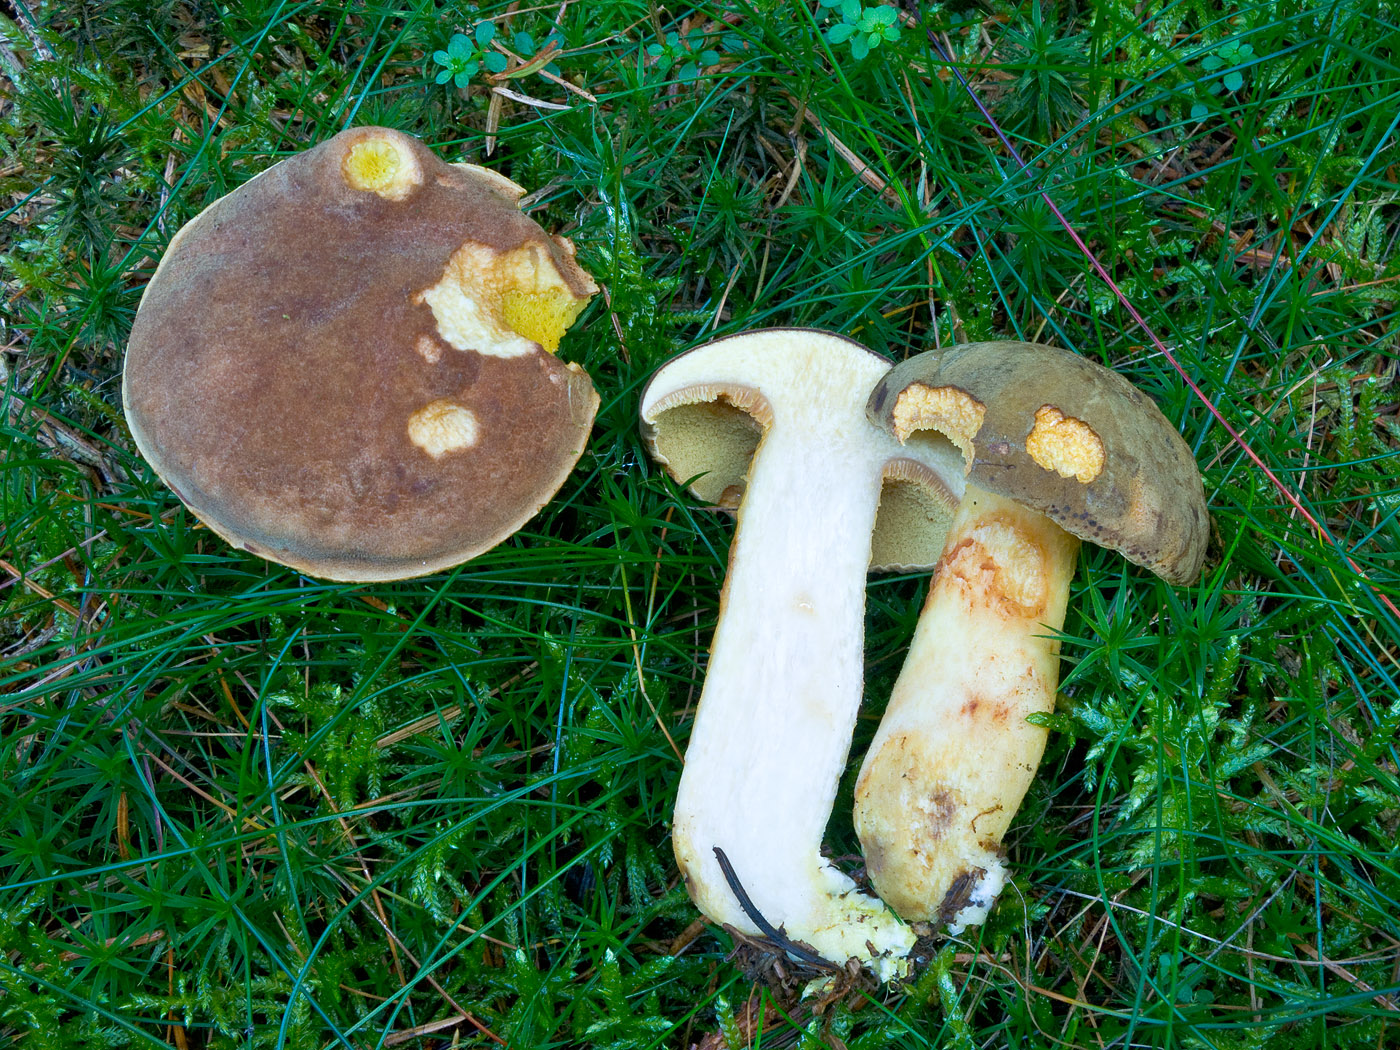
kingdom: Fungi
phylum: Basidiomycota
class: Agaricomycetes
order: Boletales
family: Boletaceae
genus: Xerocomus
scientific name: Xerocomus ferrugineus
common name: vaskeskinds-rørhat
